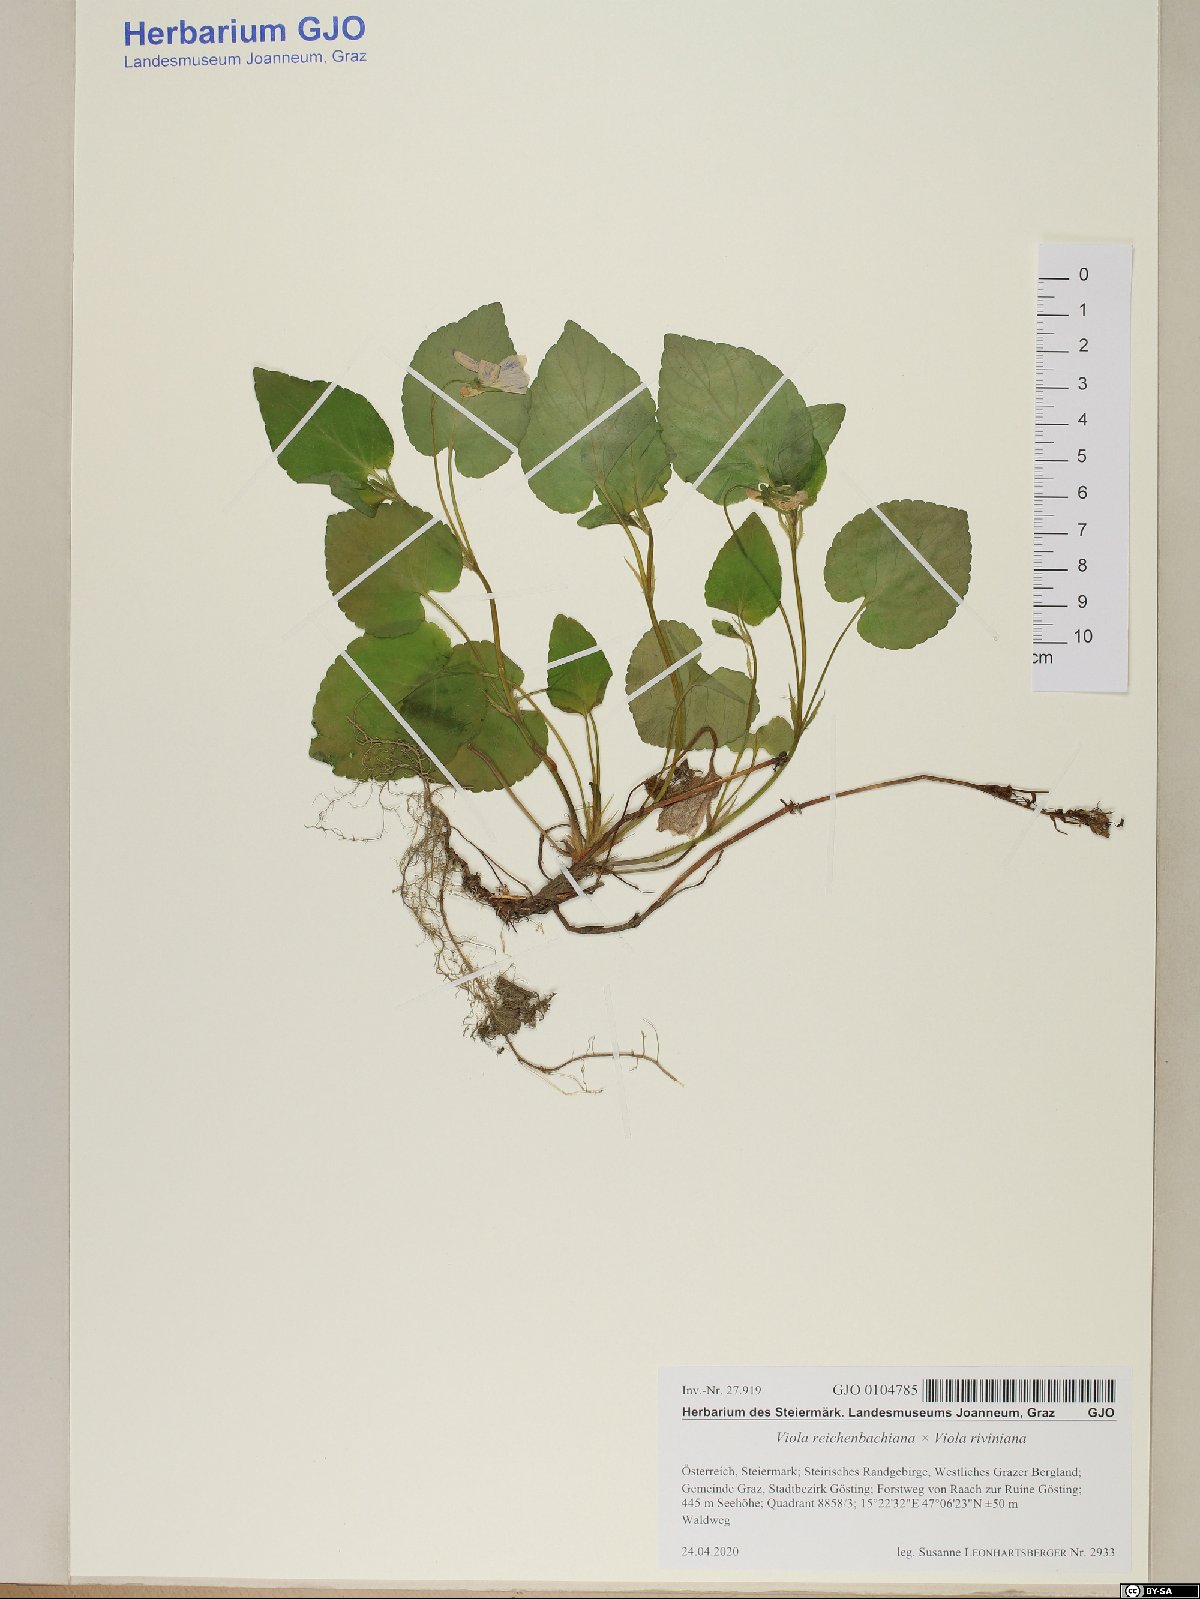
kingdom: Plantae
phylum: Tracheophyta
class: Magnoliopsida
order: Malpighiales
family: Violaceae
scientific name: Violaceae
